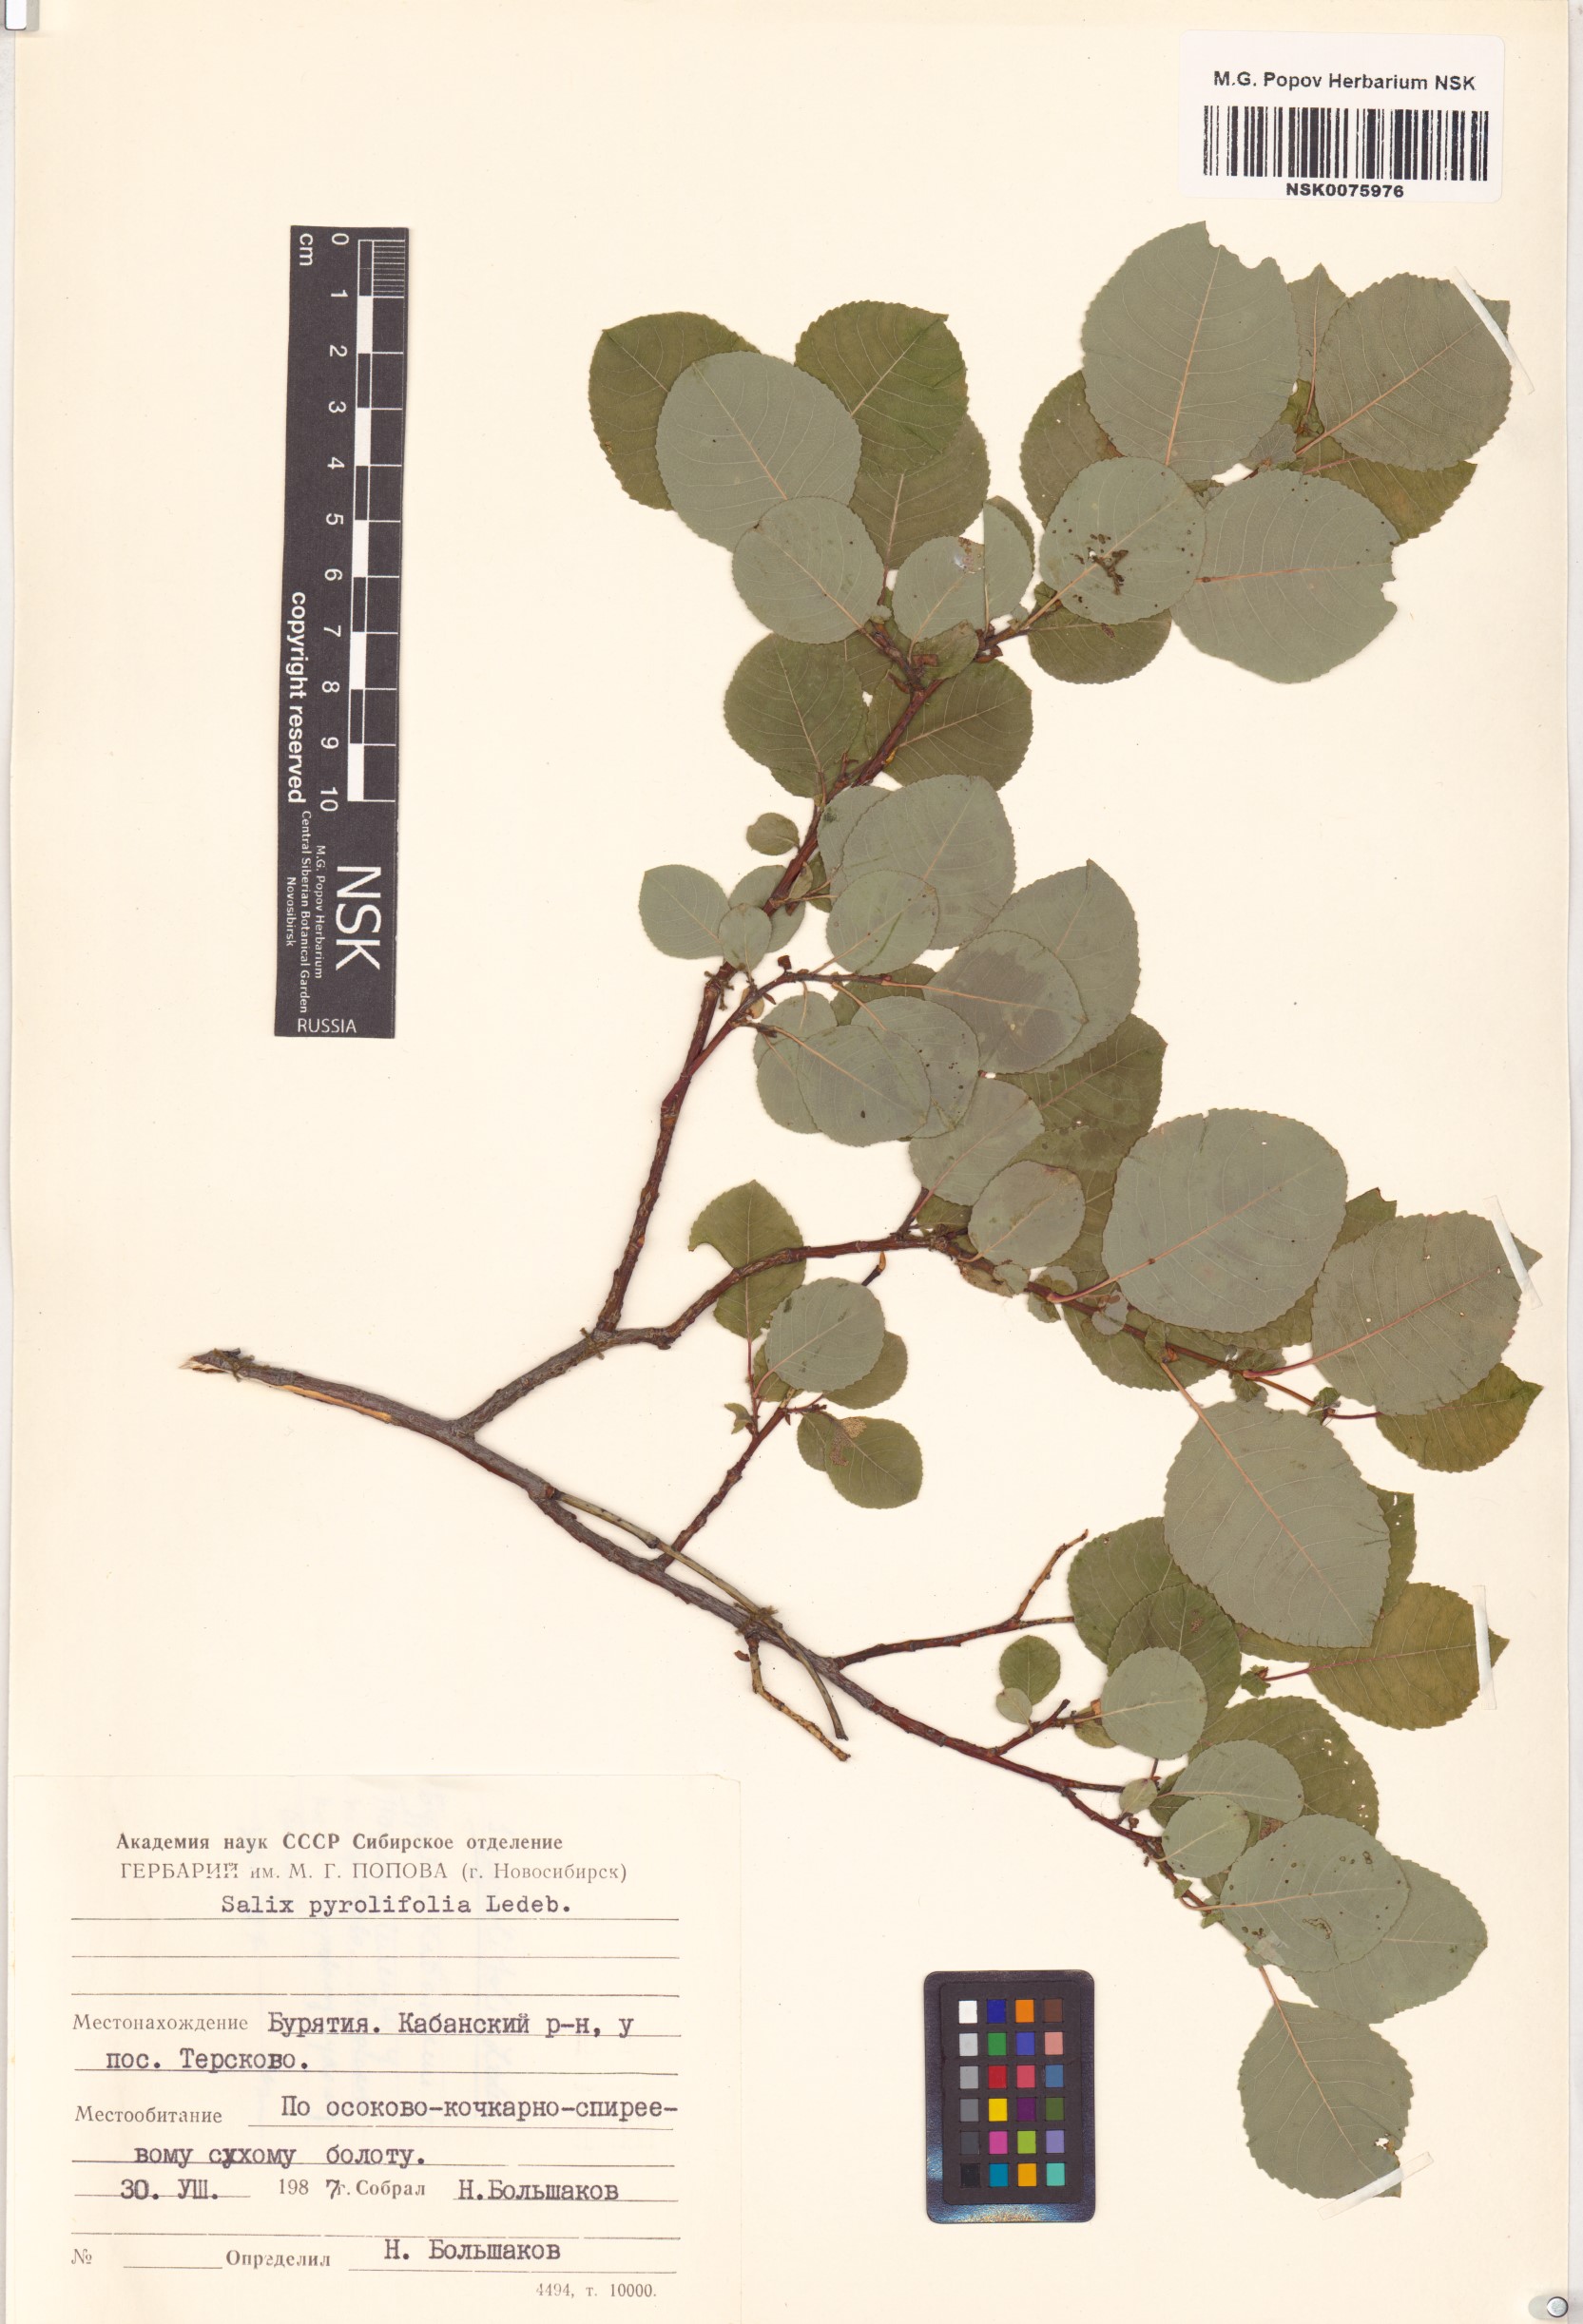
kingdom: Plantae
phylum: Tracheophyta
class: Magnoliopsida
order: Malpighiales
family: Salicaceae
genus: Salix
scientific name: Salix pyrolifolia
